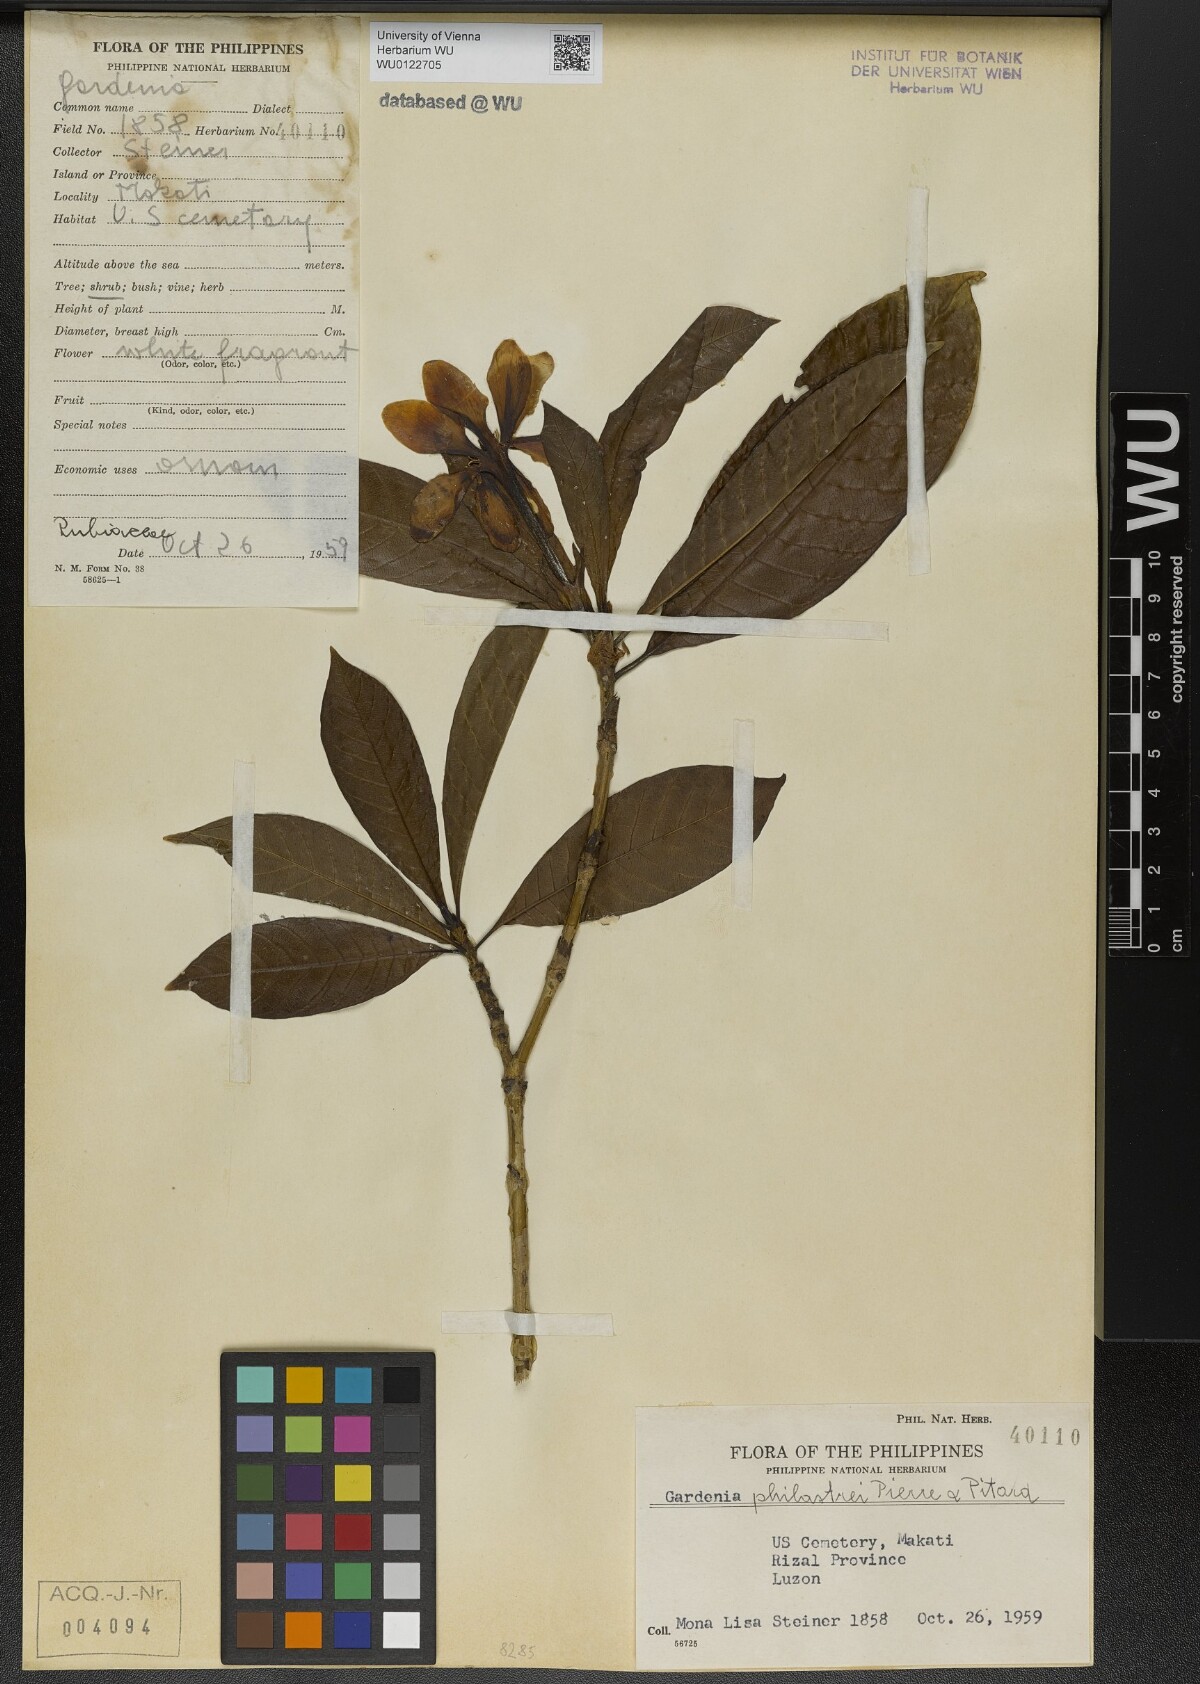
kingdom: Plantae
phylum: Tracheophyta
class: Magnoliopsida
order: Gentianales
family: Rubiaceae
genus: Gardenia
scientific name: Gardenia philastrei
